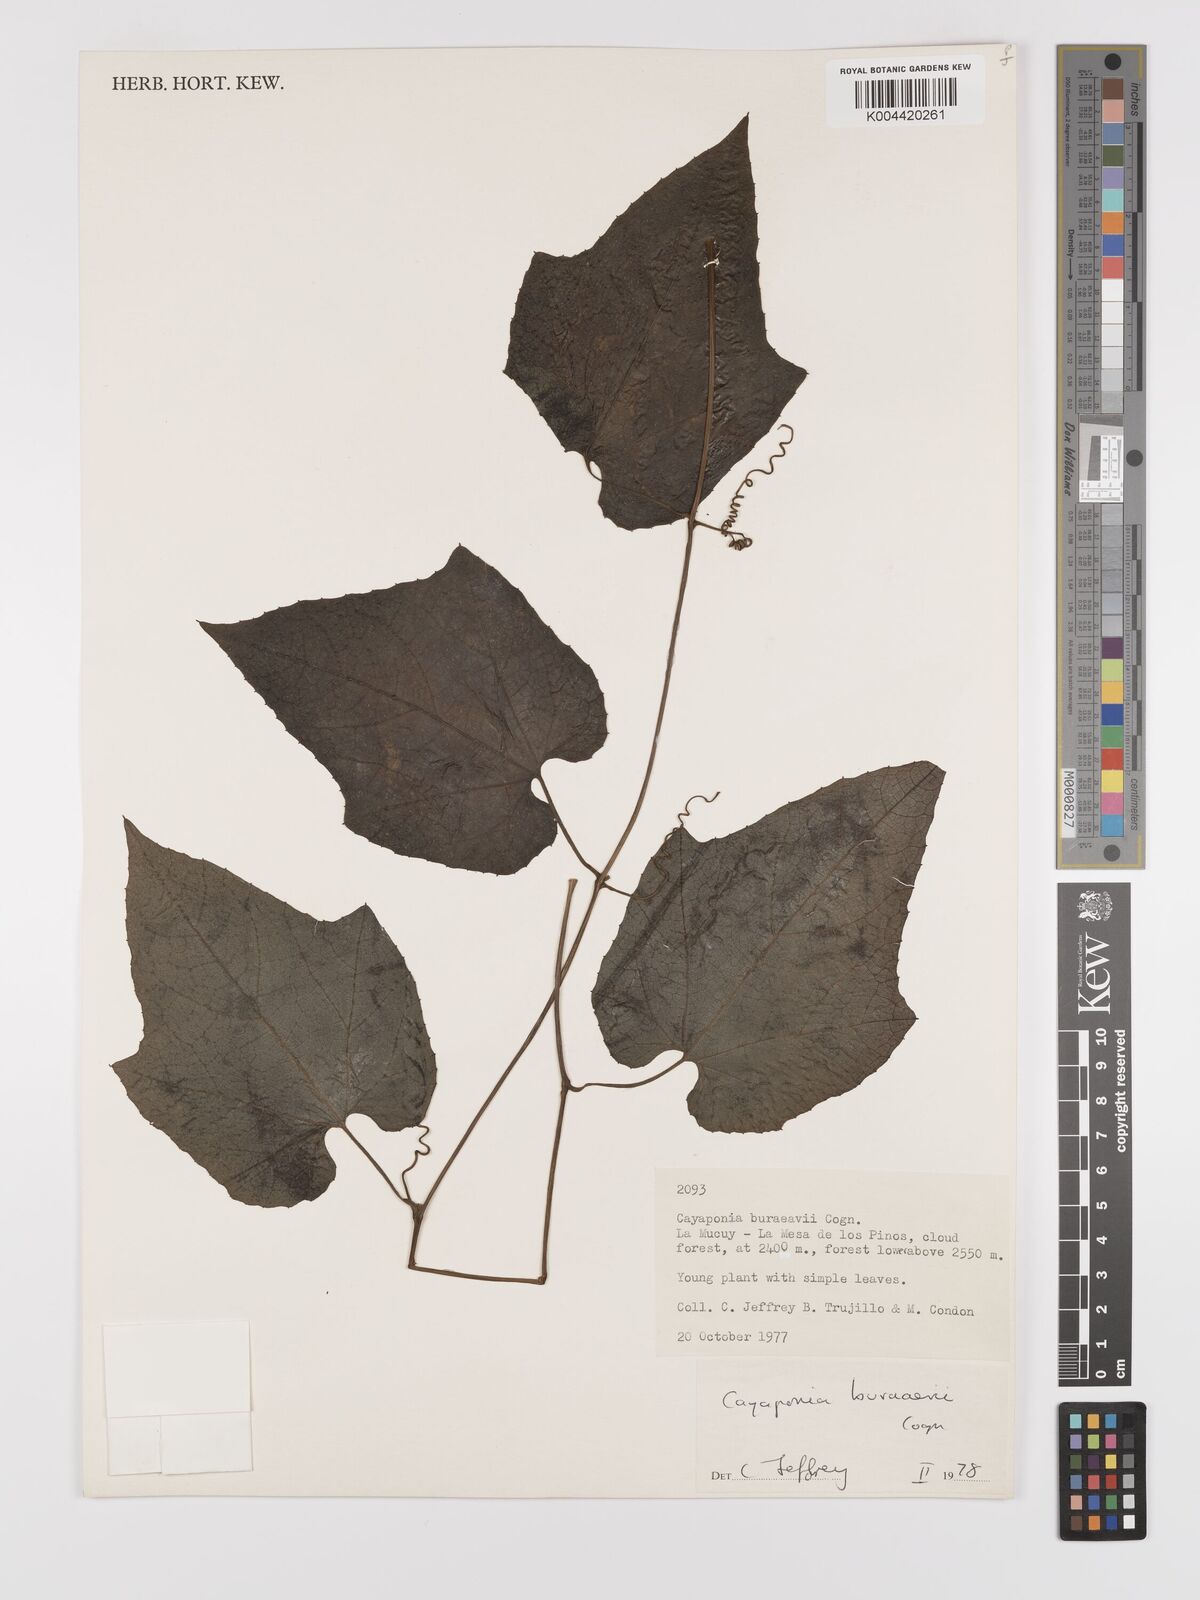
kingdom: Plantae
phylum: Tracheophyta
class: Magnoliopsida
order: Cucurbitales
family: Cucurbitaceae
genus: Cayaponia
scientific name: Cayaponia buraeavii
